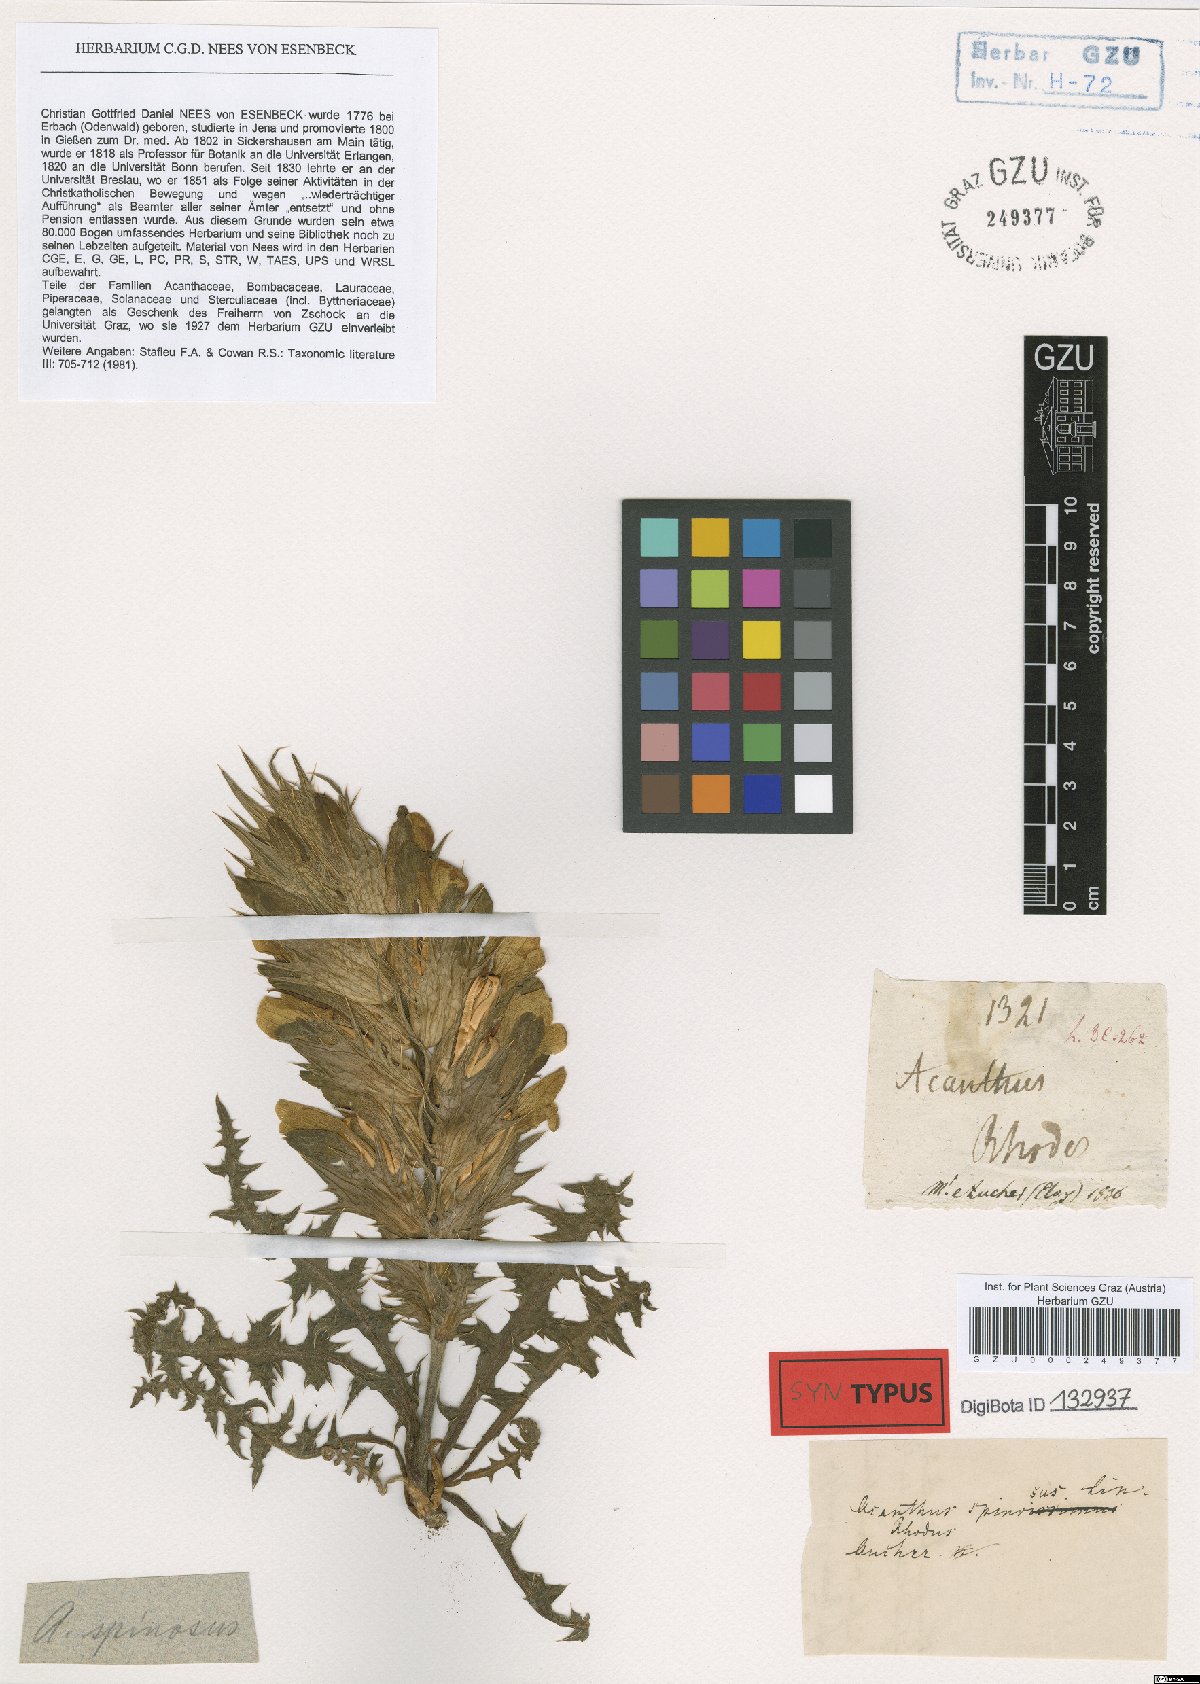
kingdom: Plantae
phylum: Tracheophyta
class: Magnoliopsida
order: Lamiales
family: Acanthaceae
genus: Acanthus
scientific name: Acanthus spinosus
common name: Spiny bear's-breech
